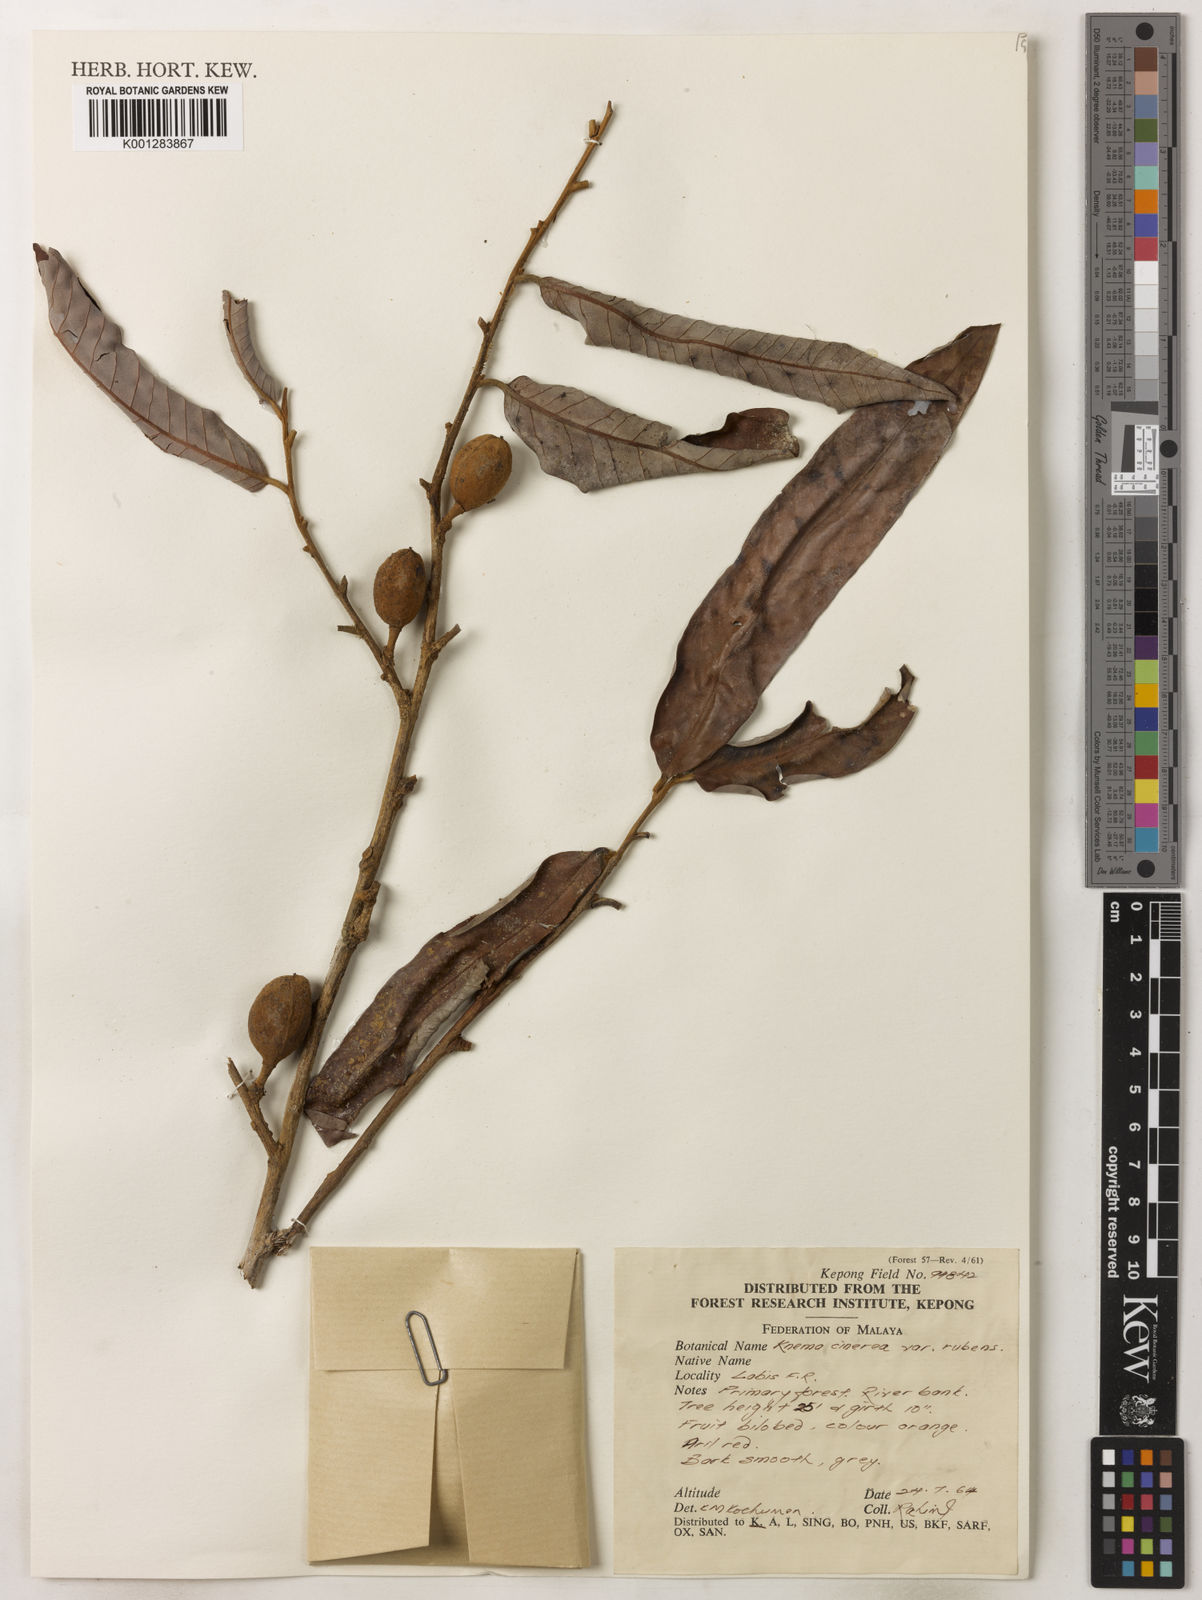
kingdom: Plantae
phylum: Tracheophyta
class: Magnoliopsida
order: Magnoliales
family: Myristicaceae
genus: Knema
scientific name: Knema
